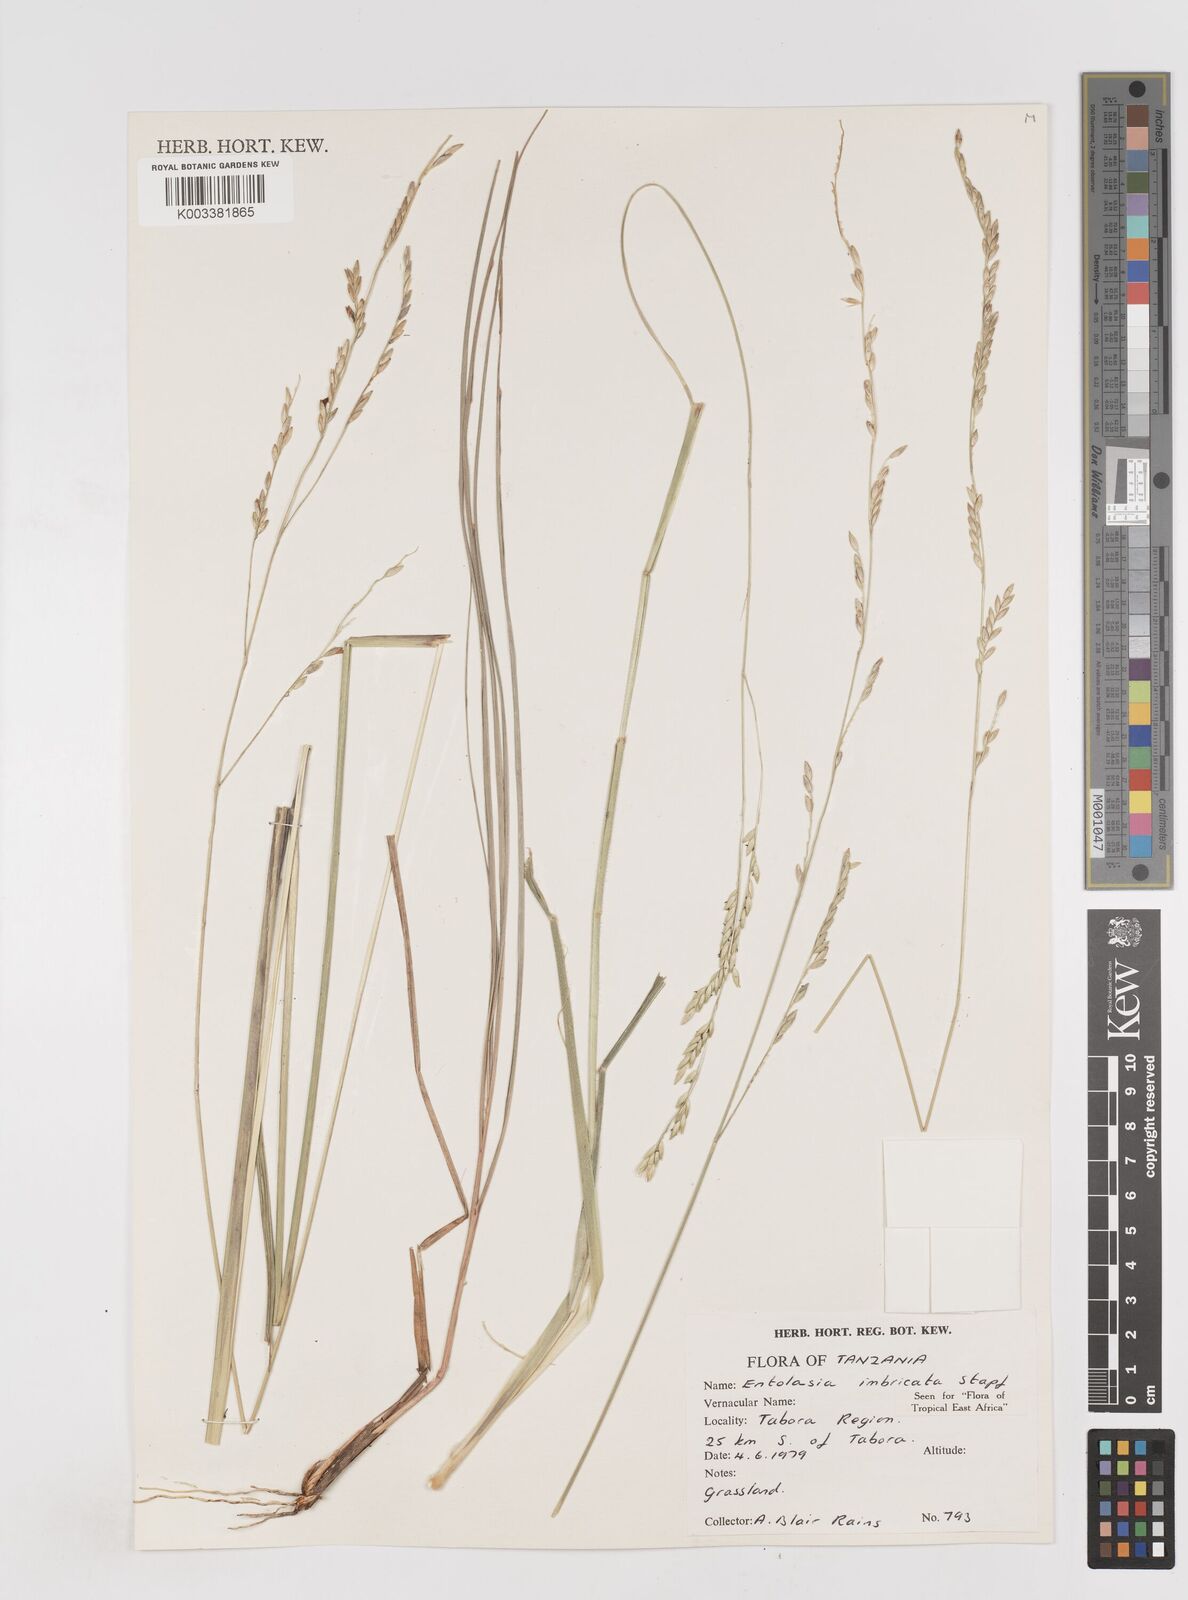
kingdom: Plantae
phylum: Tracheophyta
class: Liliopsida
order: Poales
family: Poaceae
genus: Entolasia
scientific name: Entolasia imbricata
